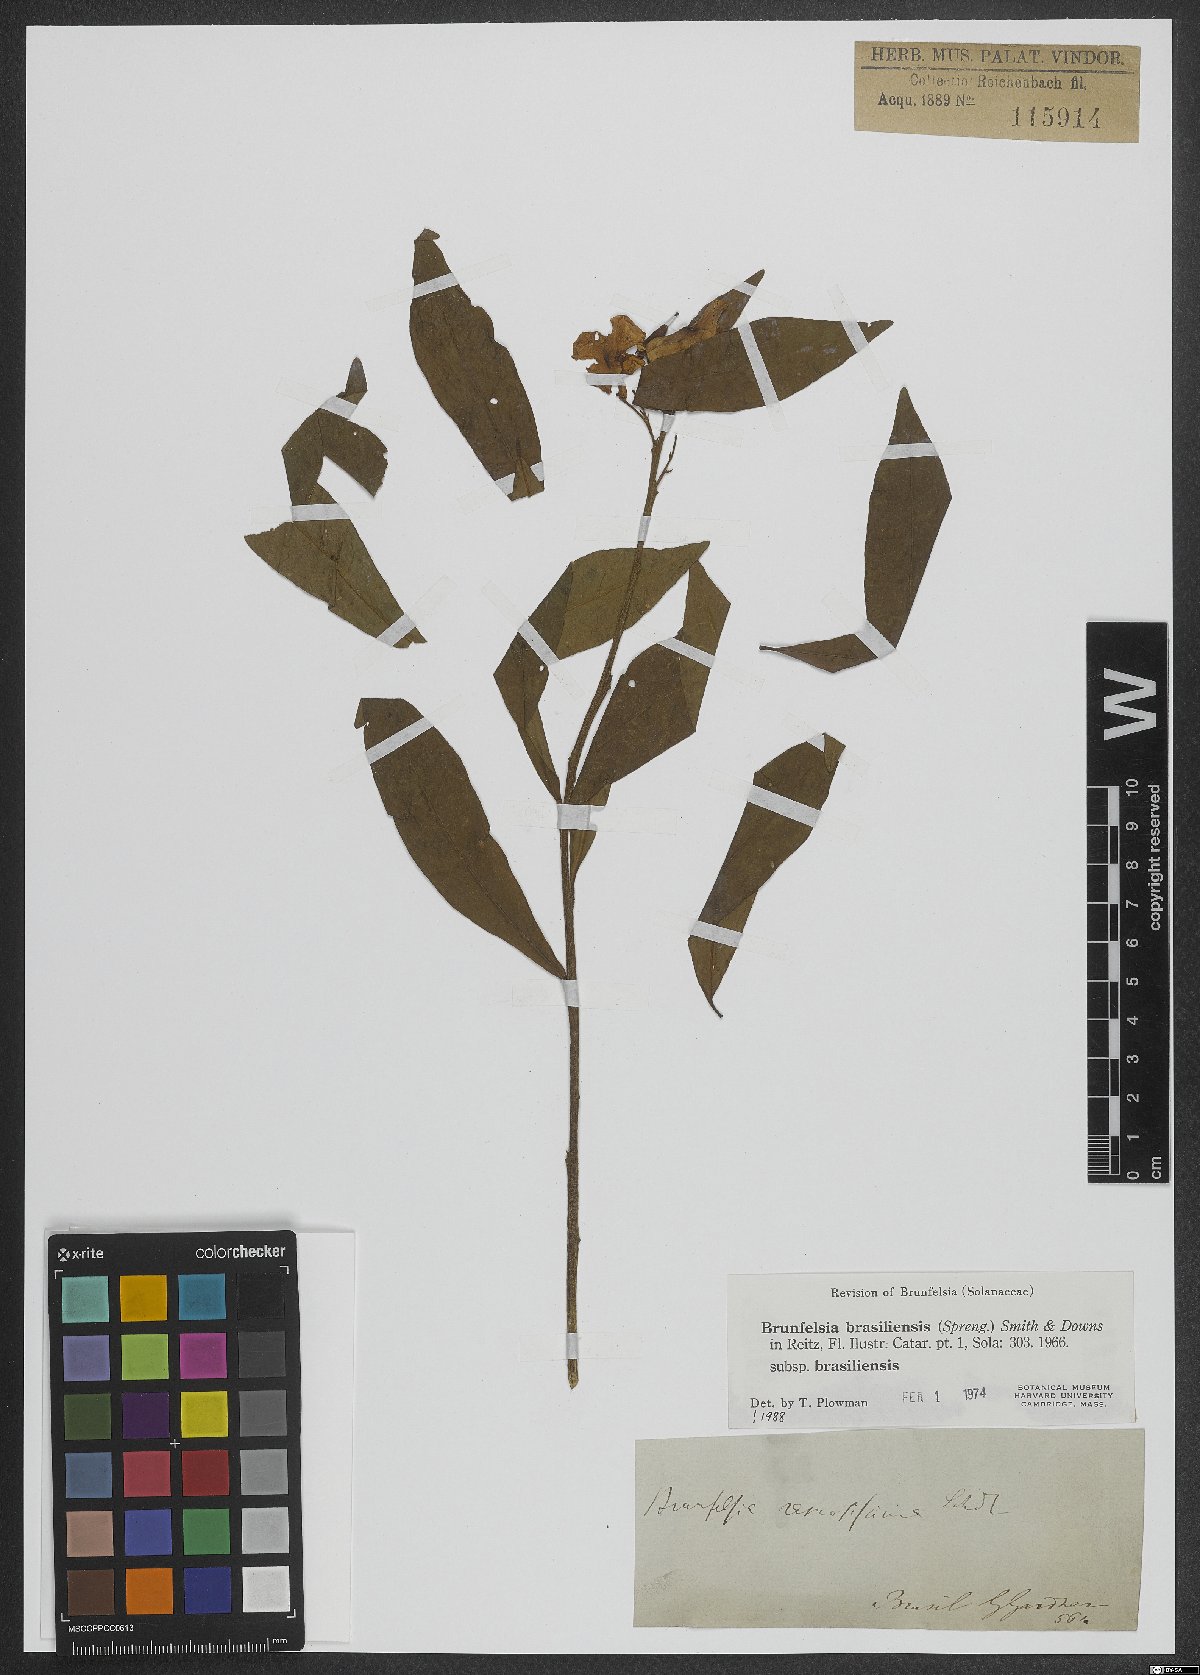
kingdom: Plantae
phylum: Tracheophyta
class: Magnoliopsida
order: Solanales
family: Solanaceae
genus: Brunfelsia
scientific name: Brunfelsia brasiliensis
